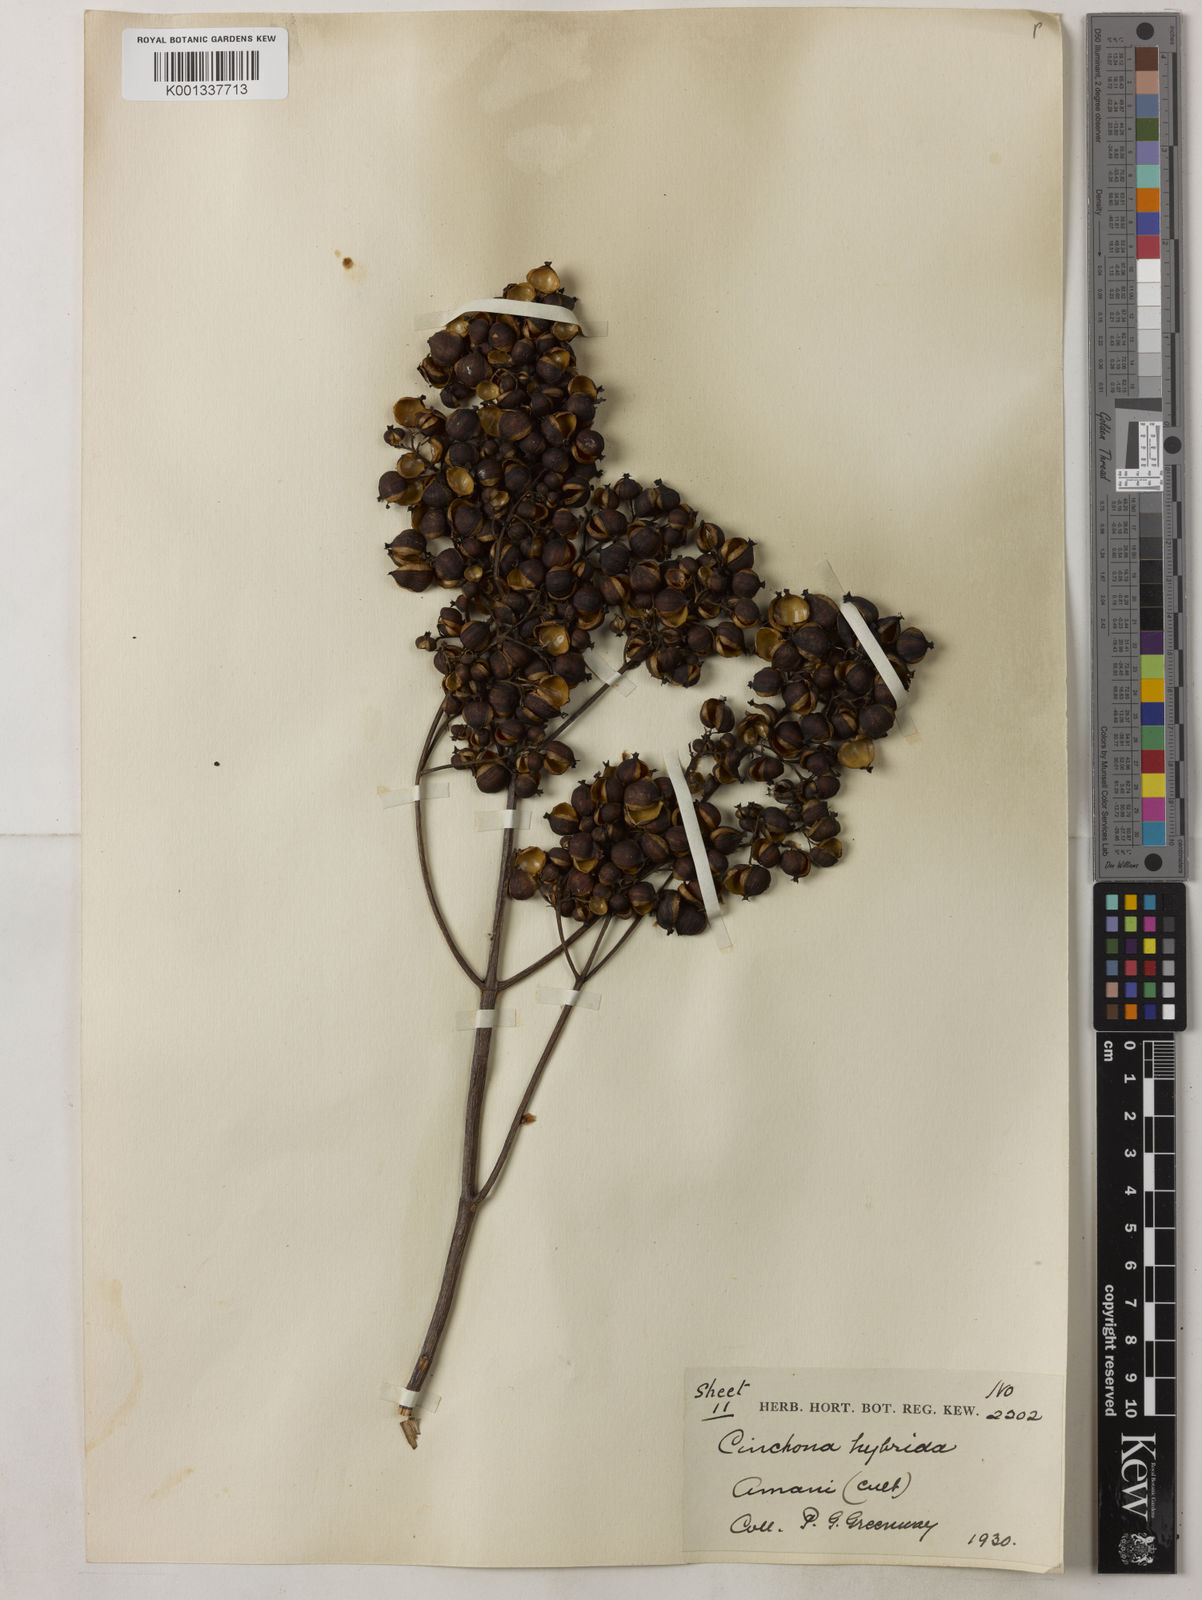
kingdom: Plantae
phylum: Tracheophyta
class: Magnoliopsida
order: Gentianales
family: Rubiaceae
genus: Cinchona
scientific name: Cinchona calisaya
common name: Ledgerbark
